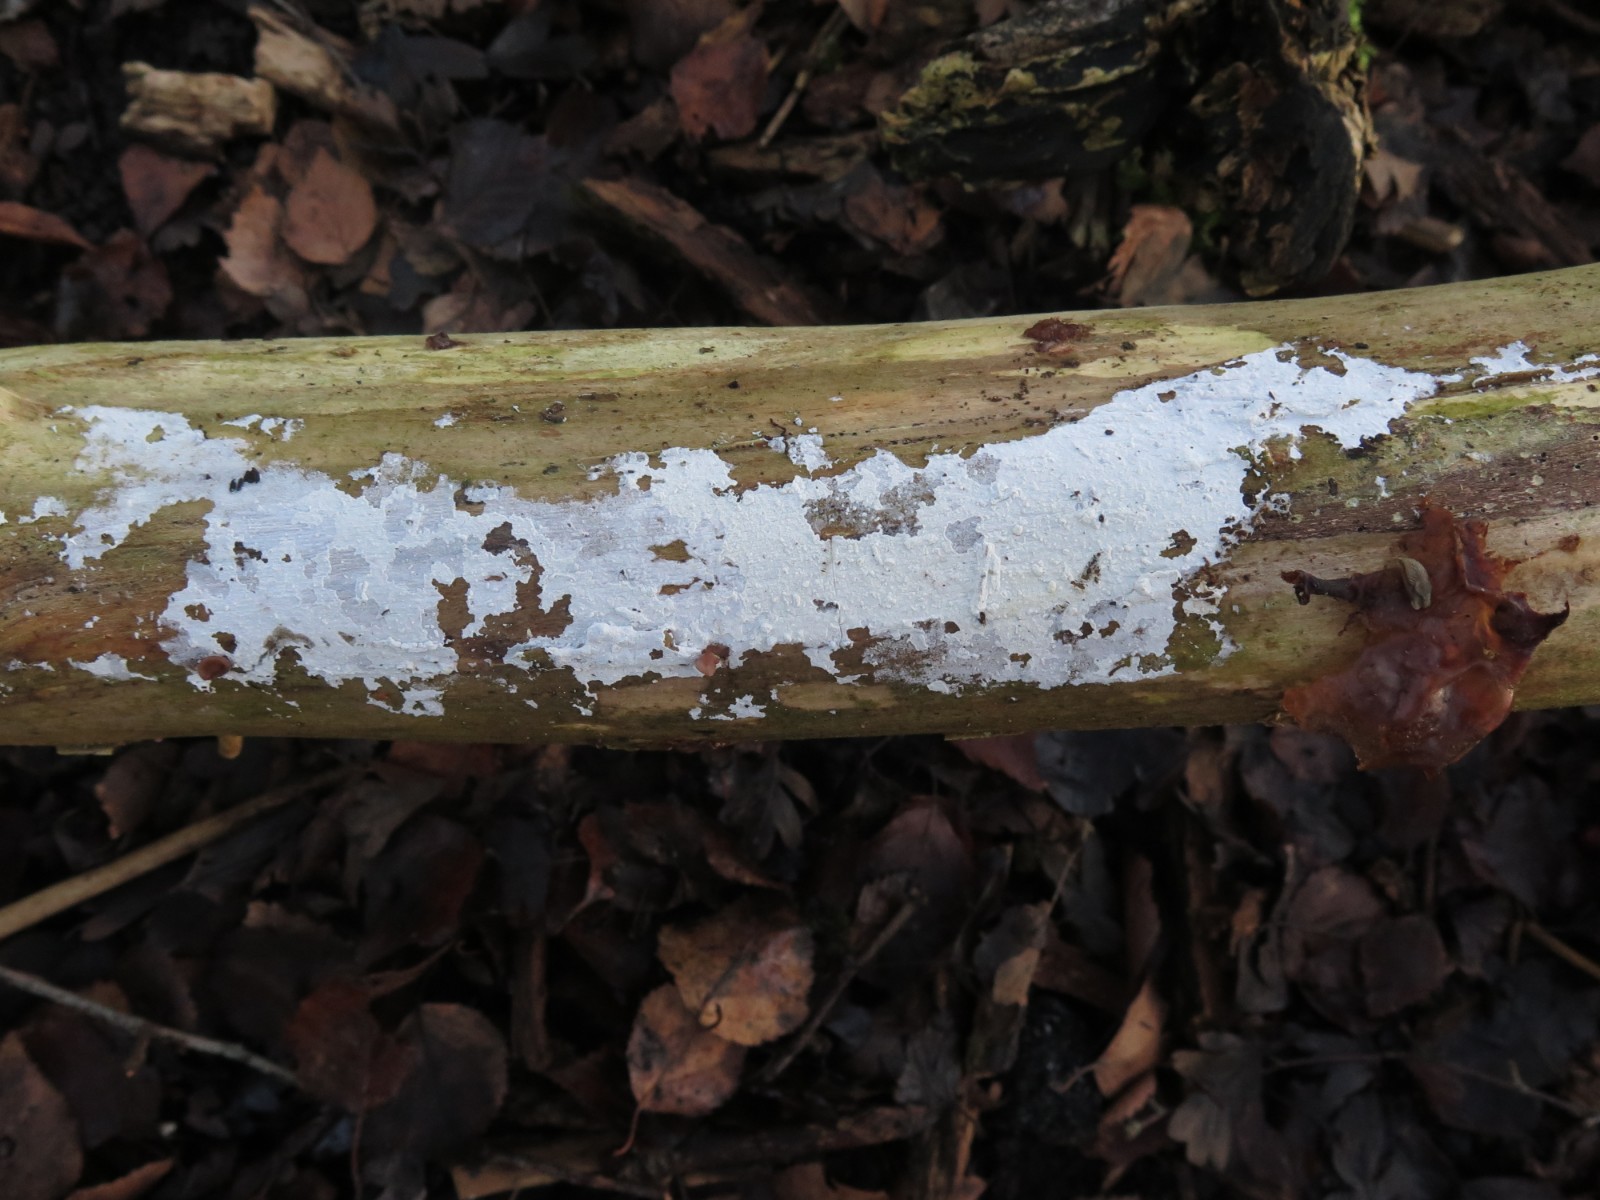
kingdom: Fungi
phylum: Basidiomycota
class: Agaricomycetes
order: Corticiales
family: Corticiaceae
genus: Lyomyces
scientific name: Lyomyces sambuci
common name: almindelig hyldehinde
